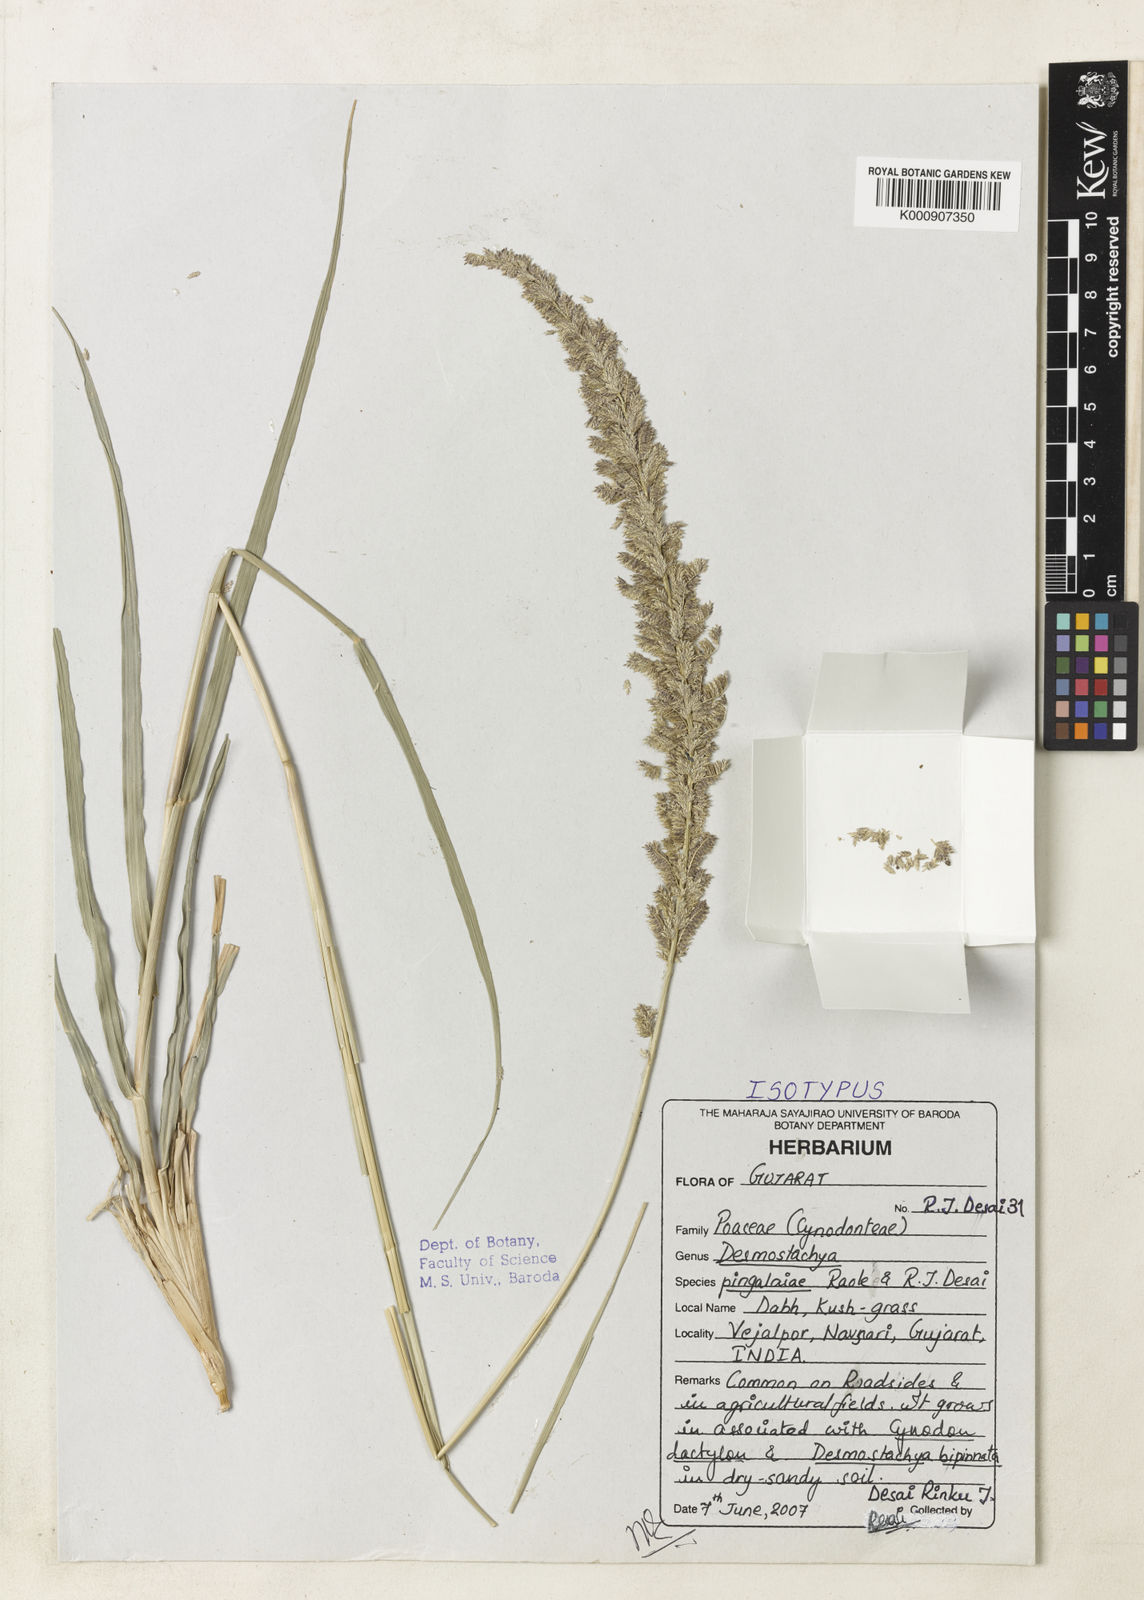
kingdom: Plantae
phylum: Tracheophyta
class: Liliopsida
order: Poales
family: Poaceae
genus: Desmostachya
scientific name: Desmostachya bipinnata
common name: Crowfoot grass
